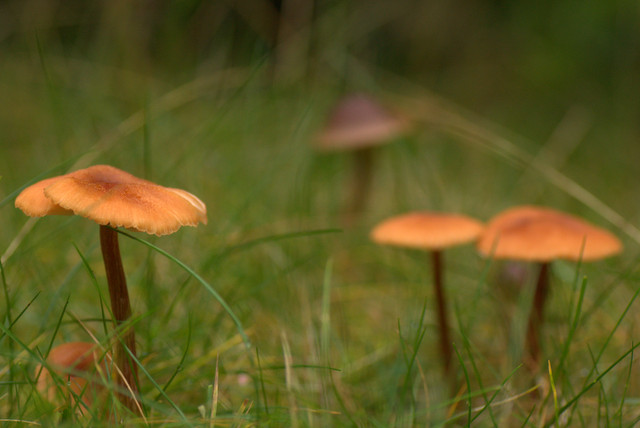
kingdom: Fungi
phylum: Basidiomycota
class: Agaricomycetes
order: Agaricales
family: Hydnangiaceae
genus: Laccaria
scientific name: Laccaria proxima
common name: stor ametysthat
